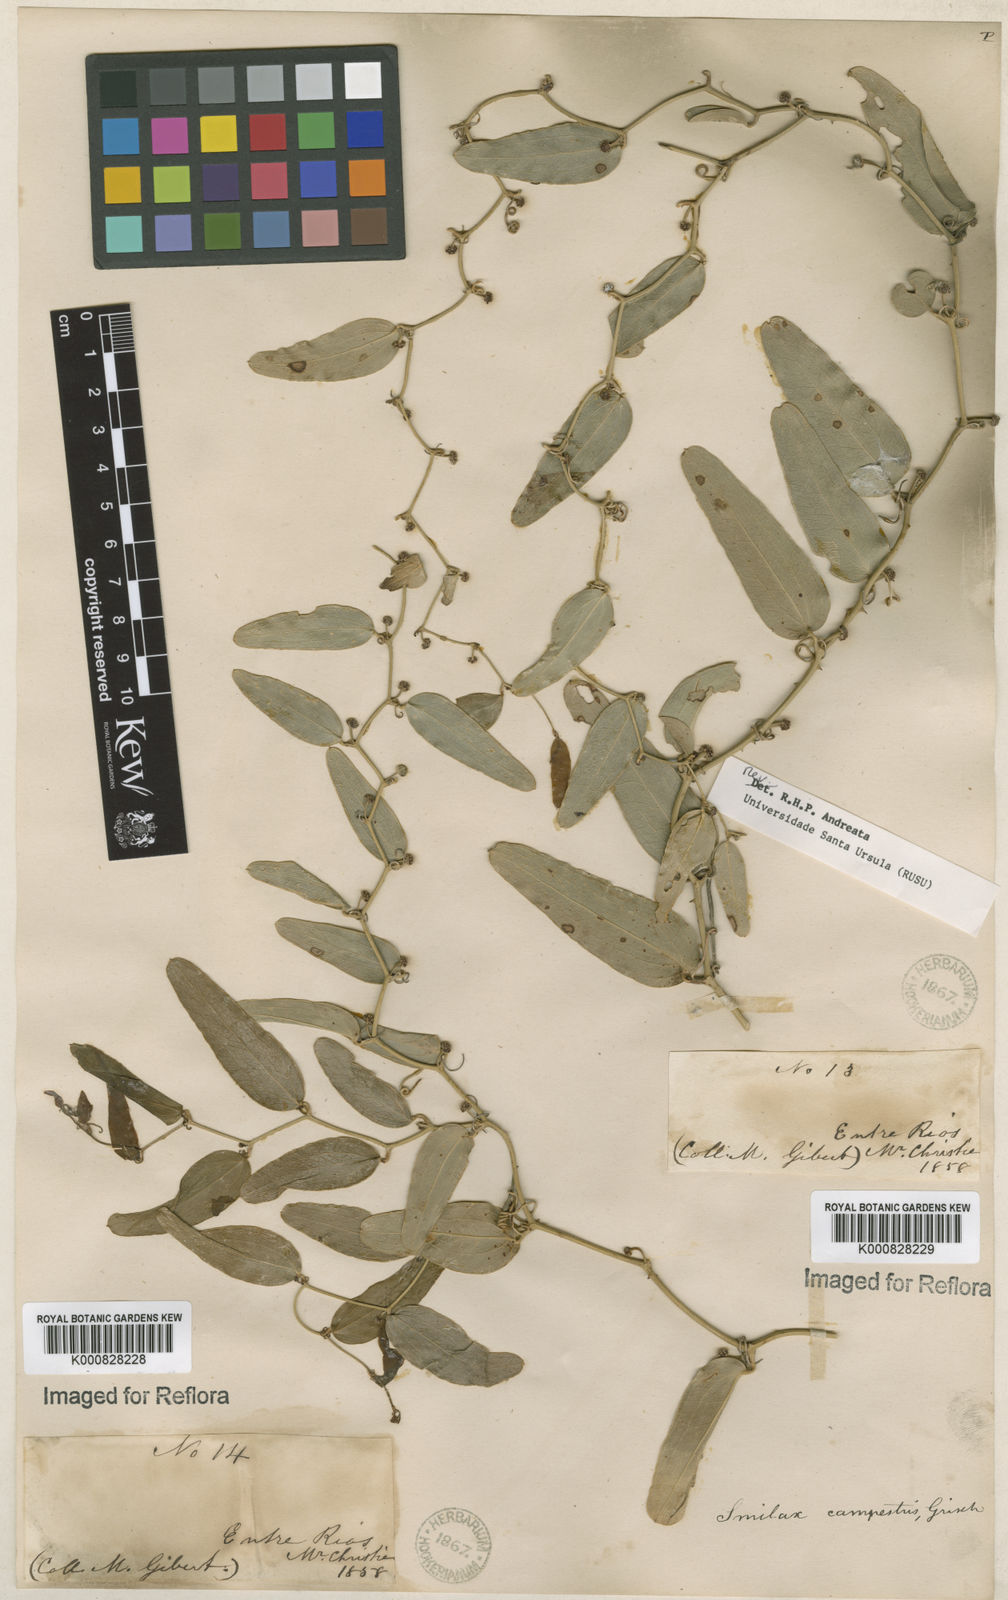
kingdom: Plantae
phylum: Tracheophyta
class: Liliopsida
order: Liliales
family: Smilacaceae
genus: Smilax
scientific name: Smilax campestris
